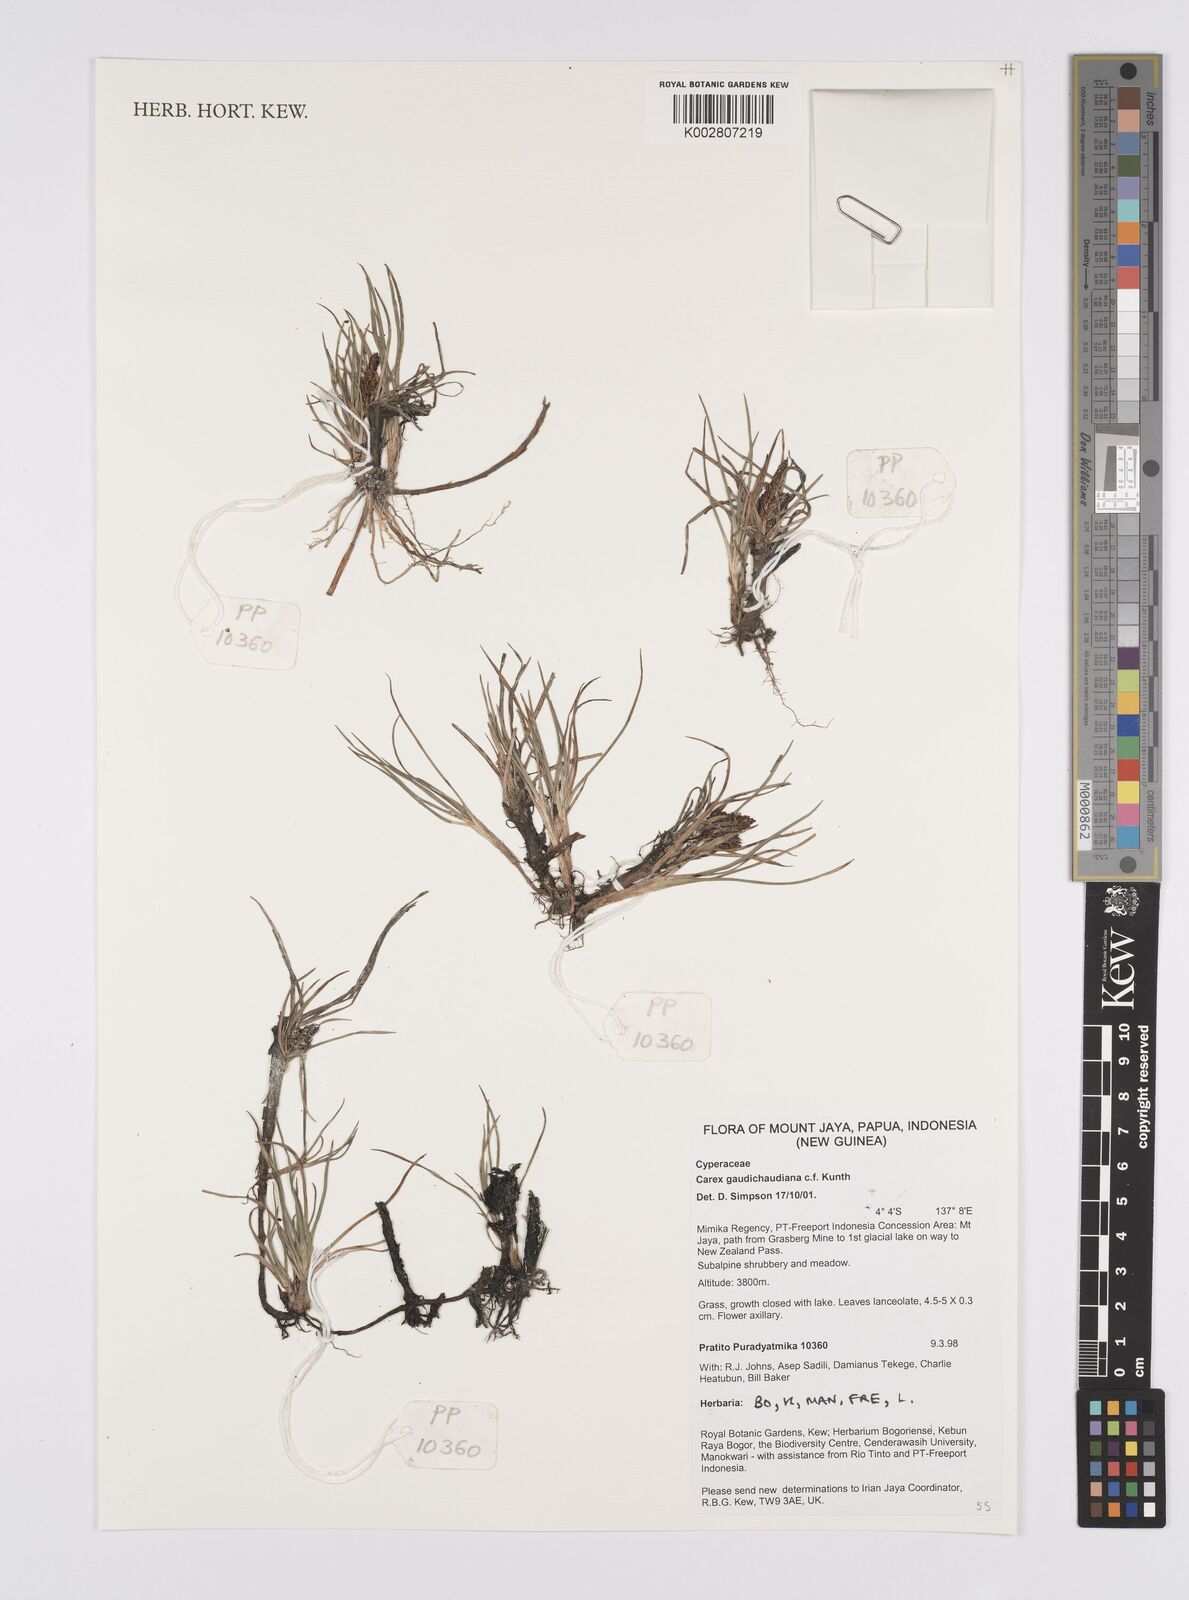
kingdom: Plantae
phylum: Tracheophyta
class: Liliopsida
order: Poales
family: Cyperaceae
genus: Carex
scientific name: Carex gaudichaudiana
